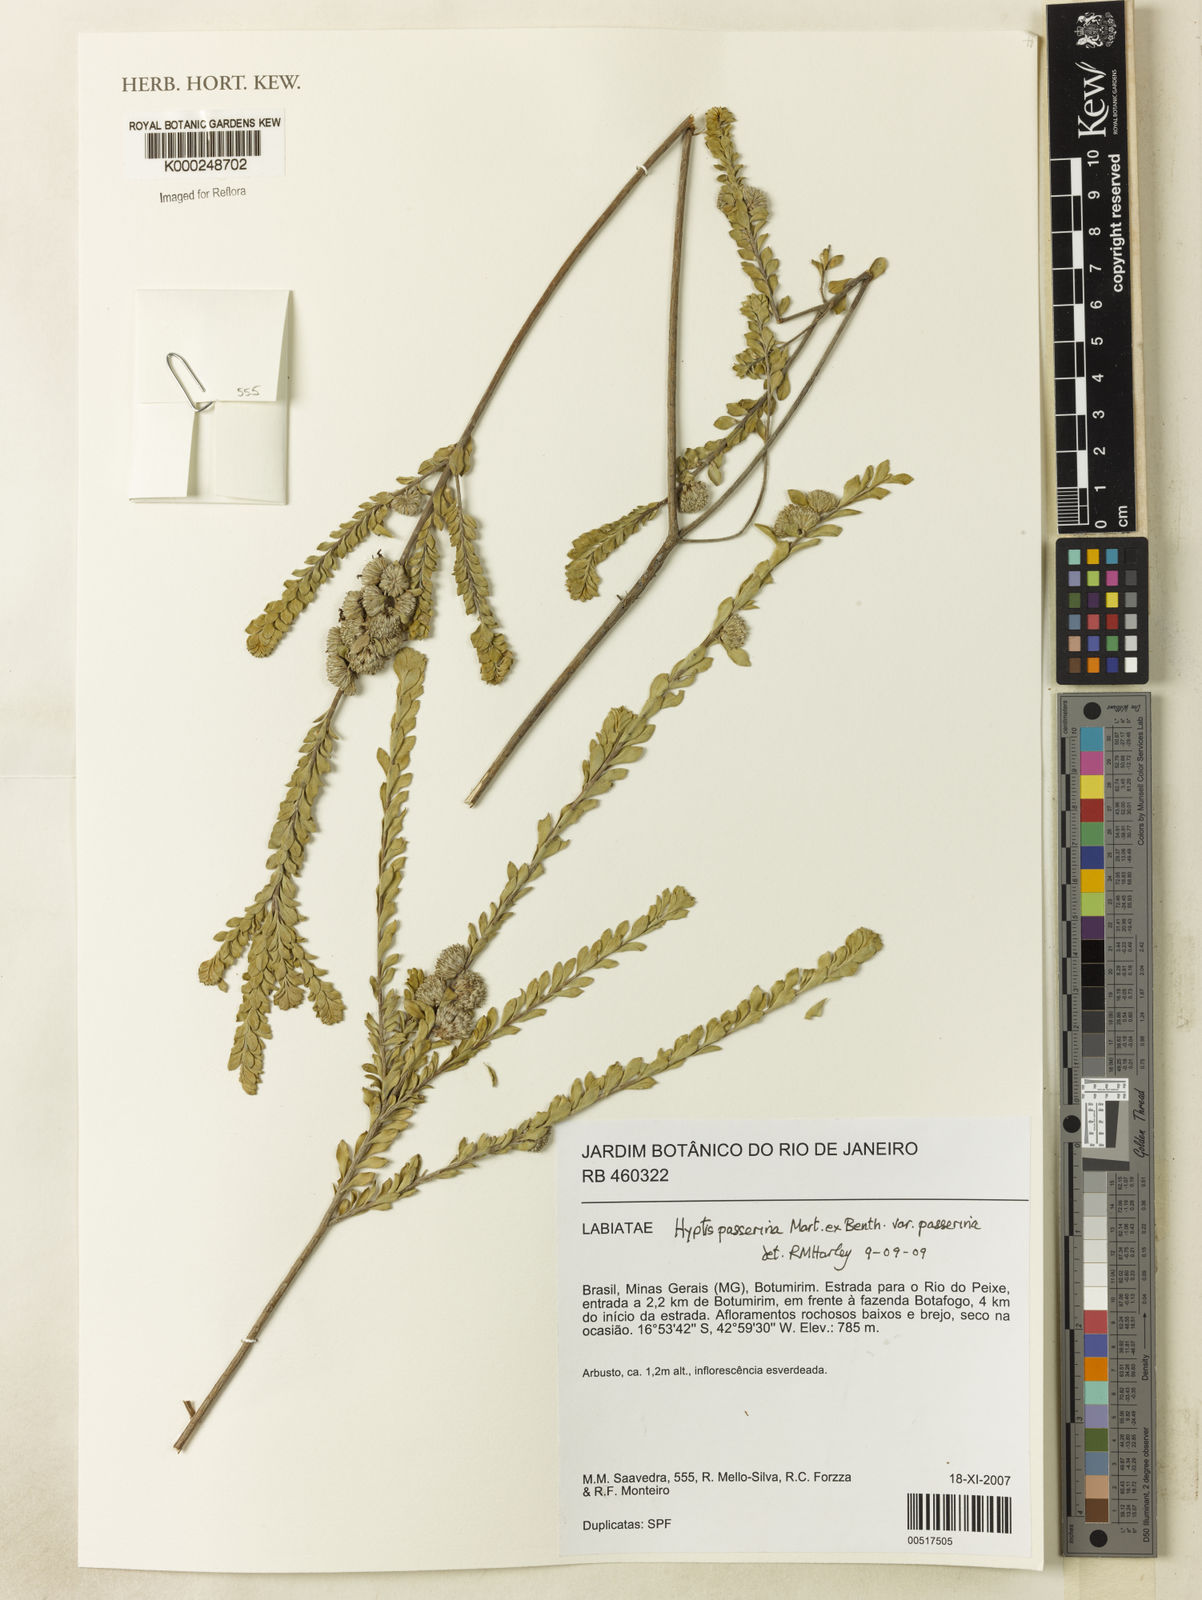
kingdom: Plantae
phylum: Tracheophyta
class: Magnoliopsida
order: Lamiales
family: Lamiaceae
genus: Hyptis
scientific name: Hyptis passerina
